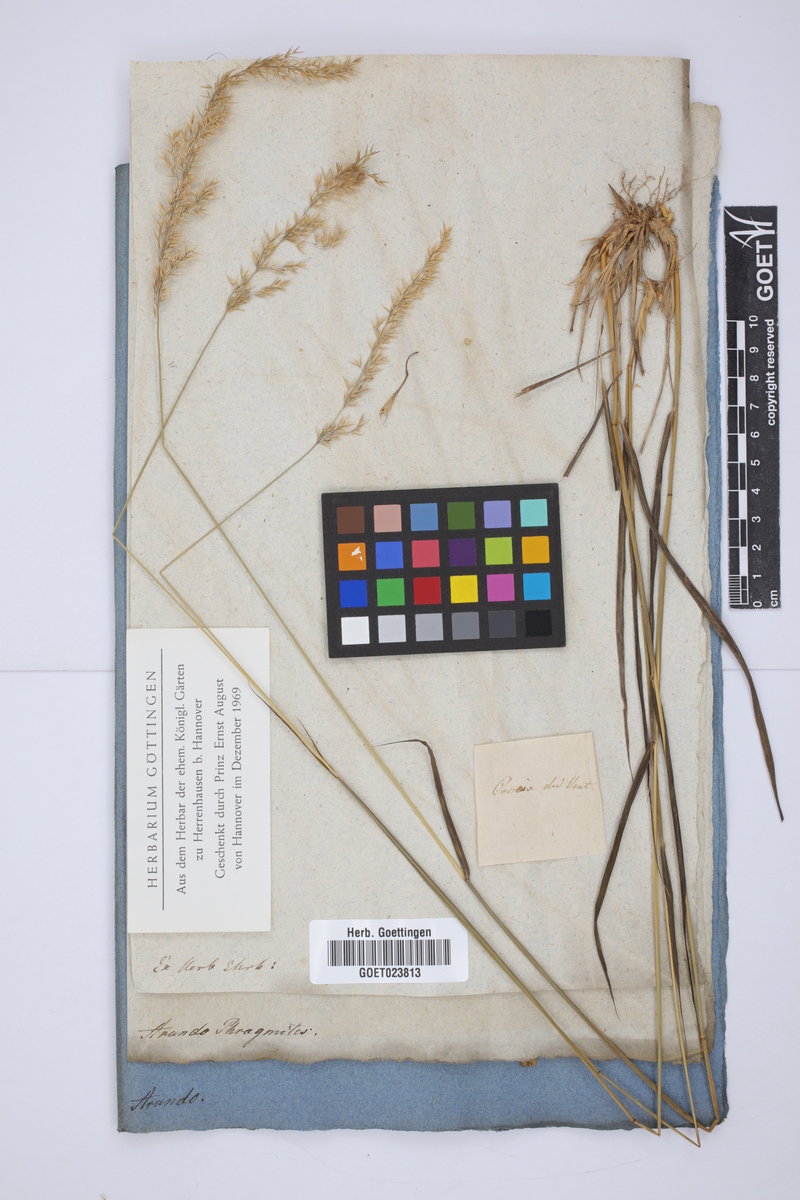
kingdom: Plantae
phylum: Tracheophyta
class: Liliopsida
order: Poales
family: Poaceae
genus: Phragmites
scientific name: Phragmites australis
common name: Common reed
